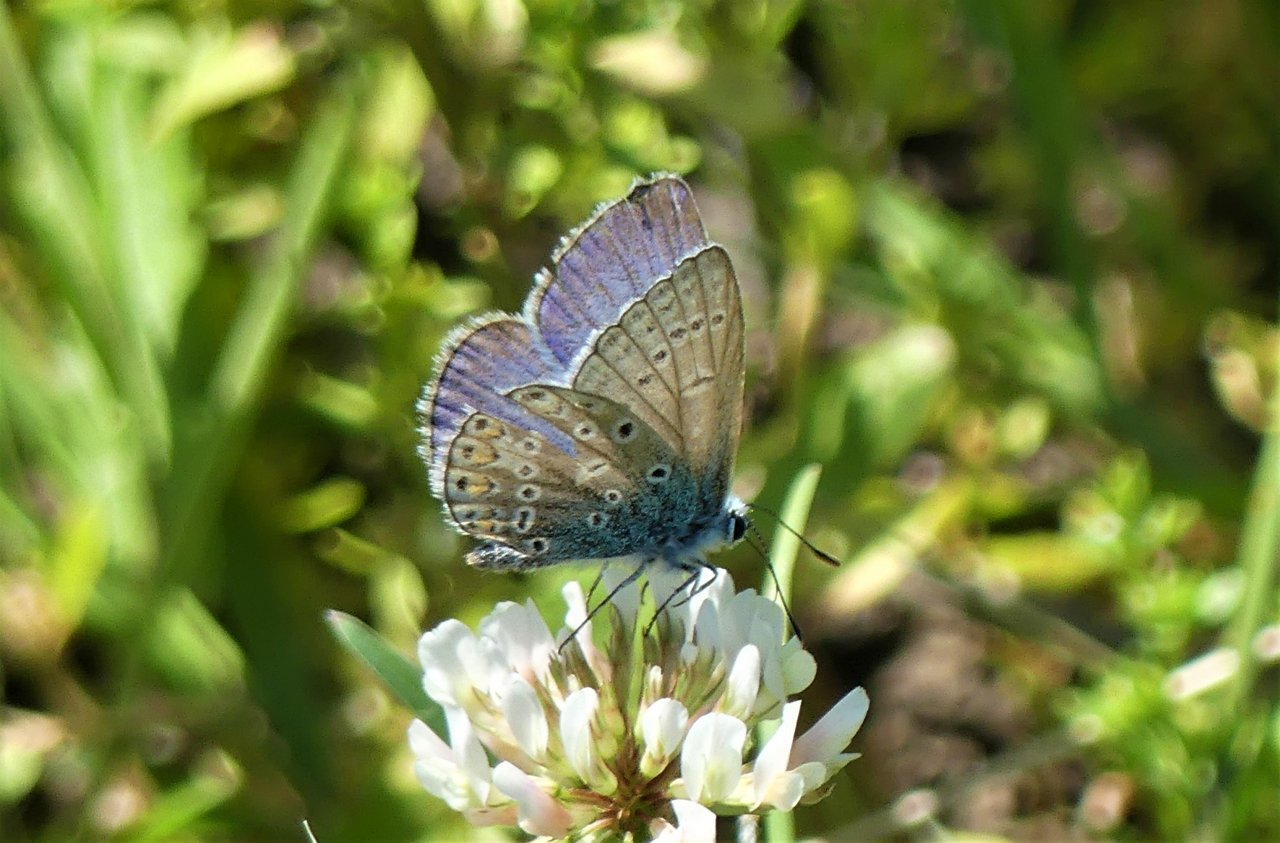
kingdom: Animalia
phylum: Arthropoda
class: Insecta
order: Lepidoptera
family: Lycaenidae
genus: Polyommatus
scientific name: Polyommatus icarus
